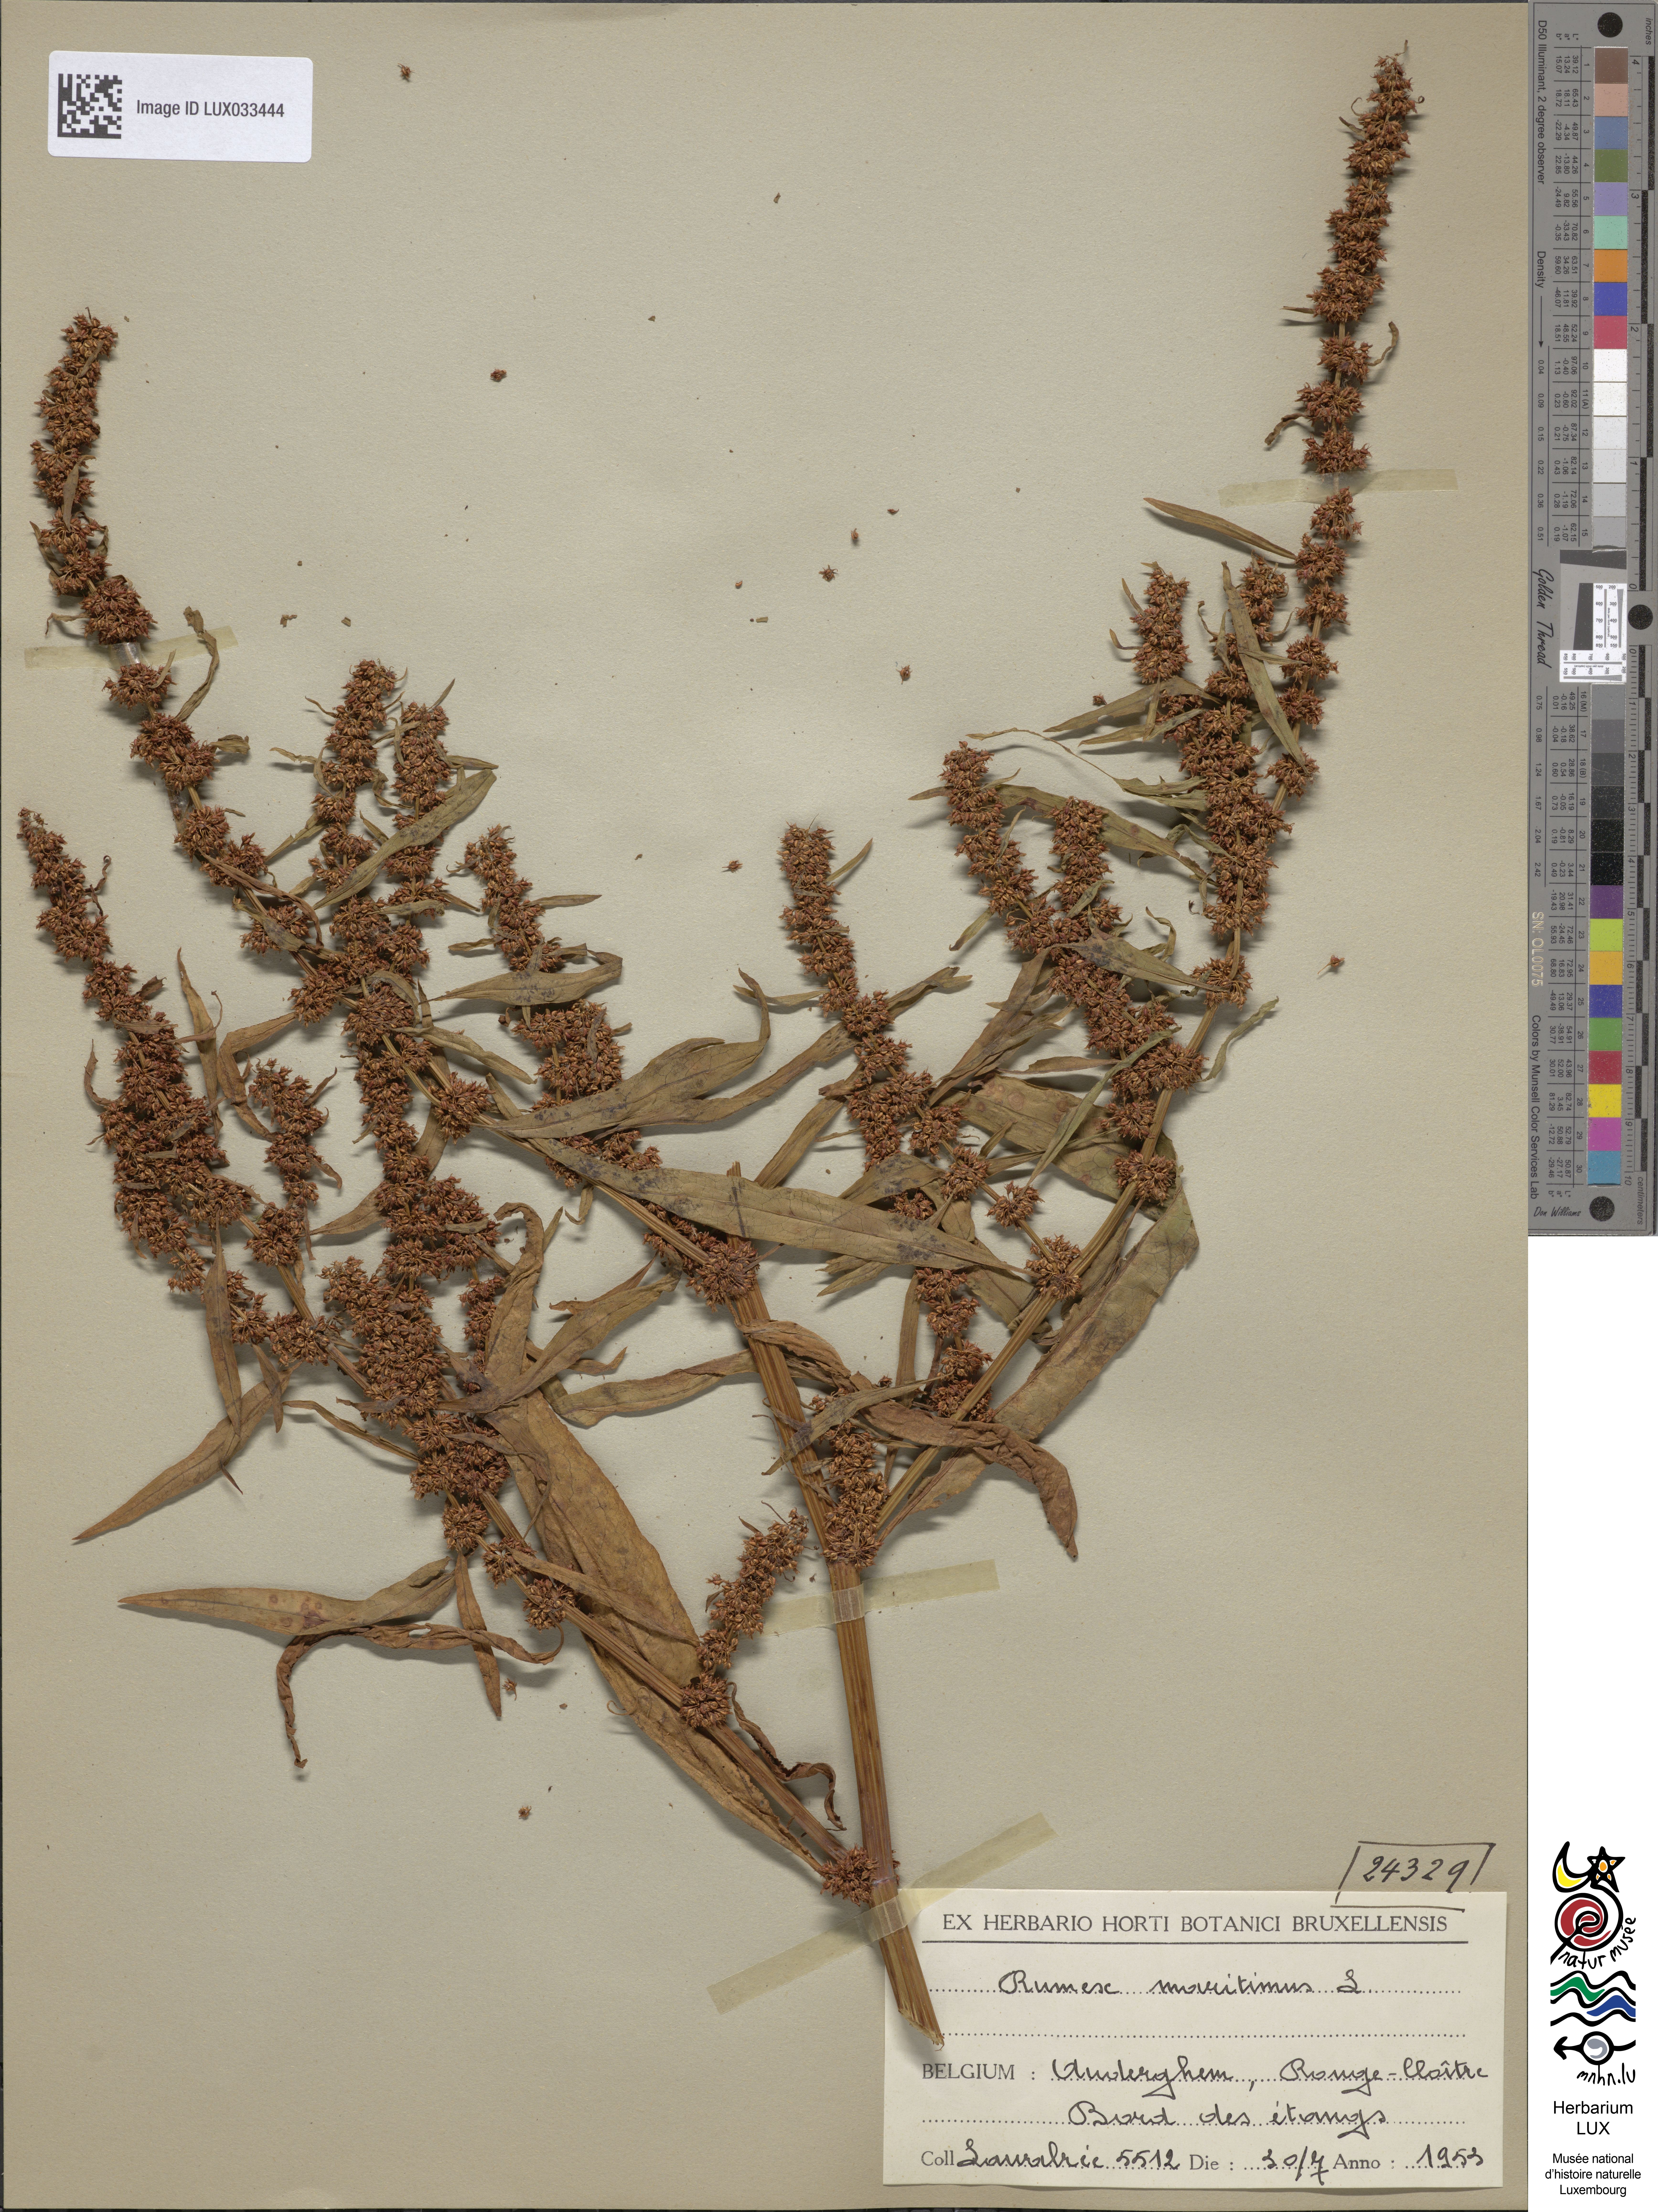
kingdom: Plantae
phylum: Tracheophyta
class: Magnoliopsida
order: Caryophyllales
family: Polygonaceae
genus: Rumex
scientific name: Rumex maritimus
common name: Golden dock
